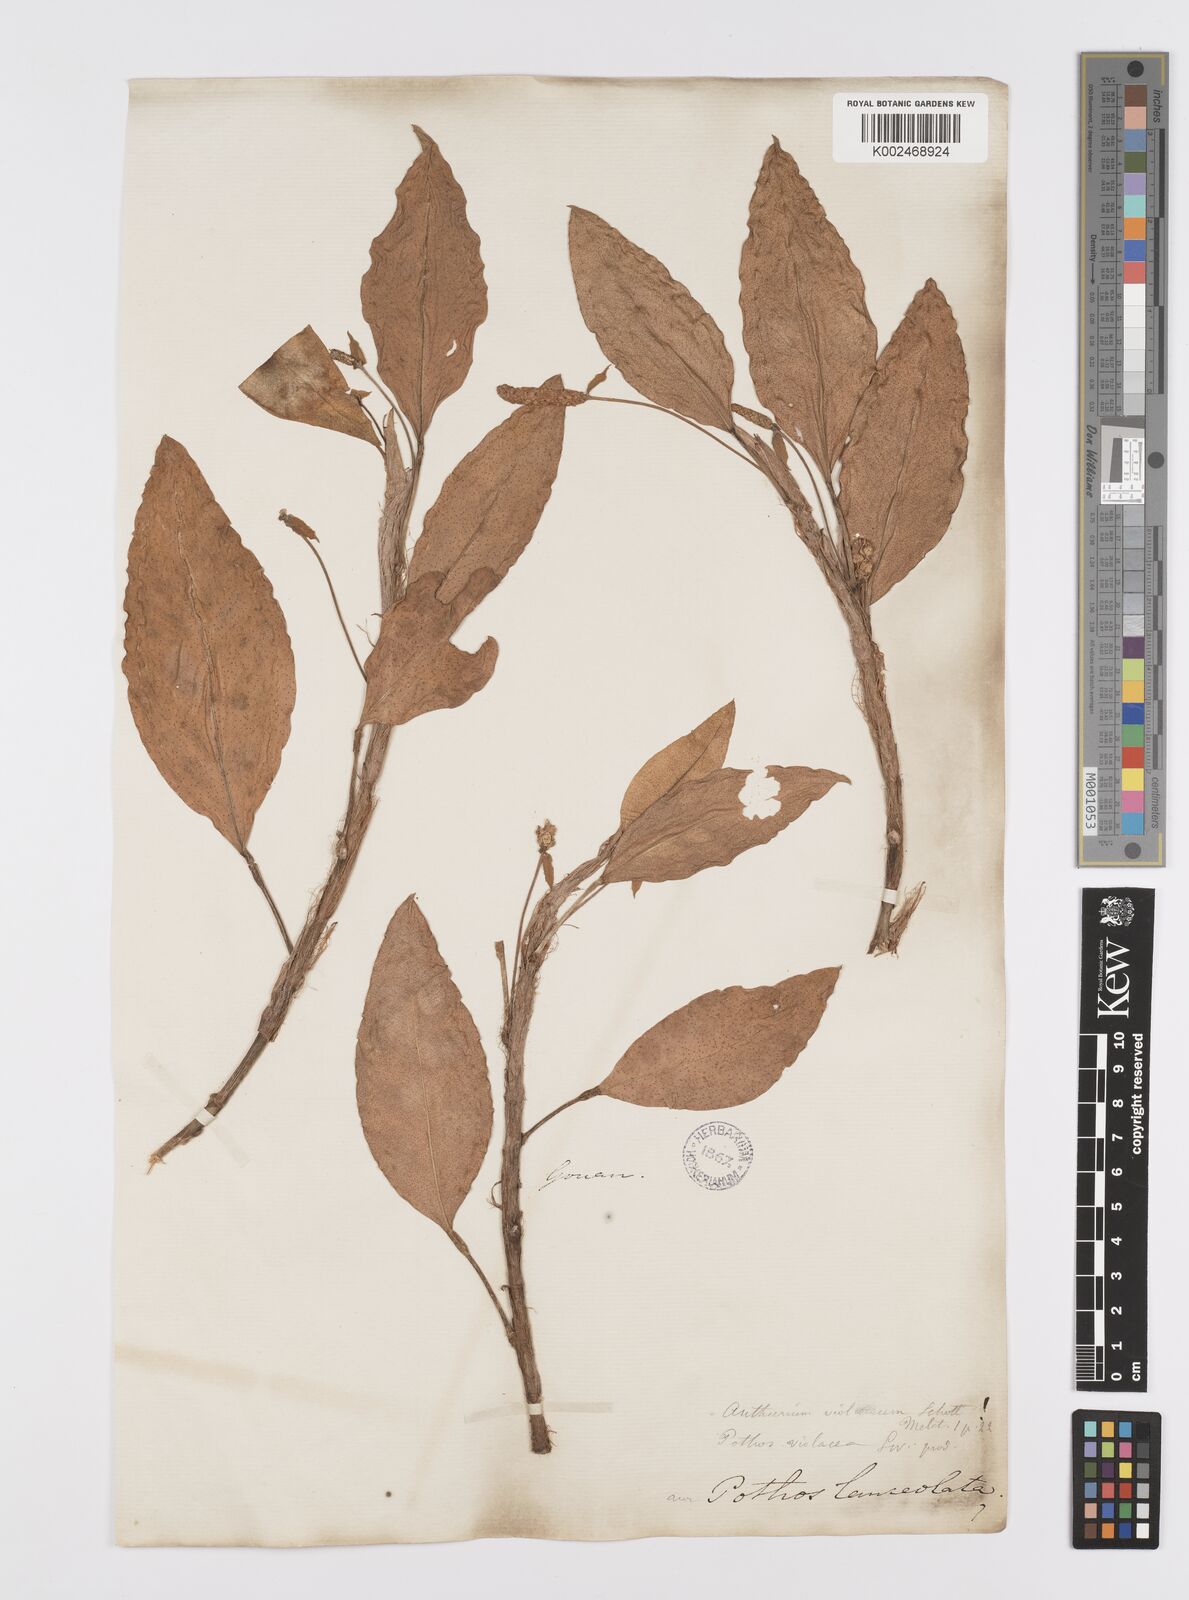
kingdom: Plantae
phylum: Tracheophyta
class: Liliopsida
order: Alismatales
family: Araceae
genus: Anthurium
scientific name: Anthurium scandens
